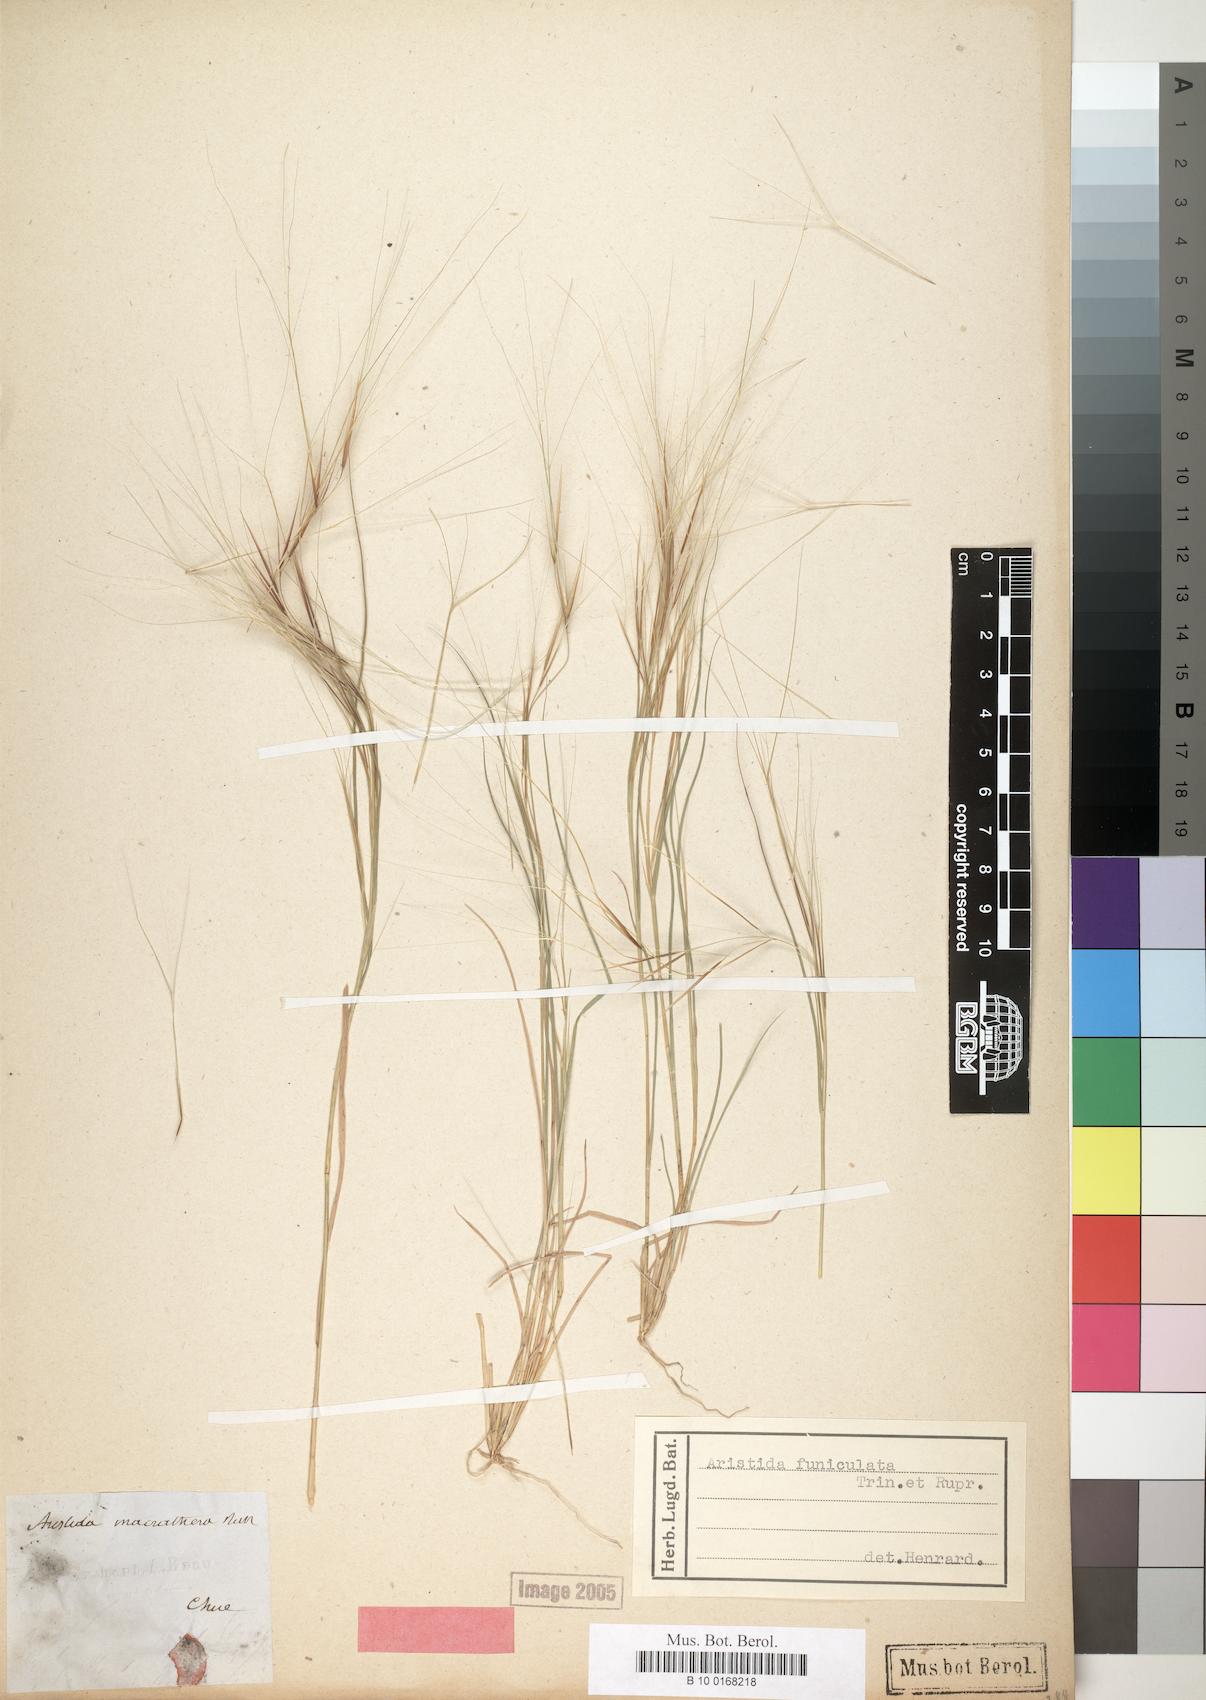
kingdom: Plantae
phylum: Tracheophyta
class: Liliopsida
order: Poales
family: Poaceae
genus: Aristida
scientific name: Aristida funiculata
